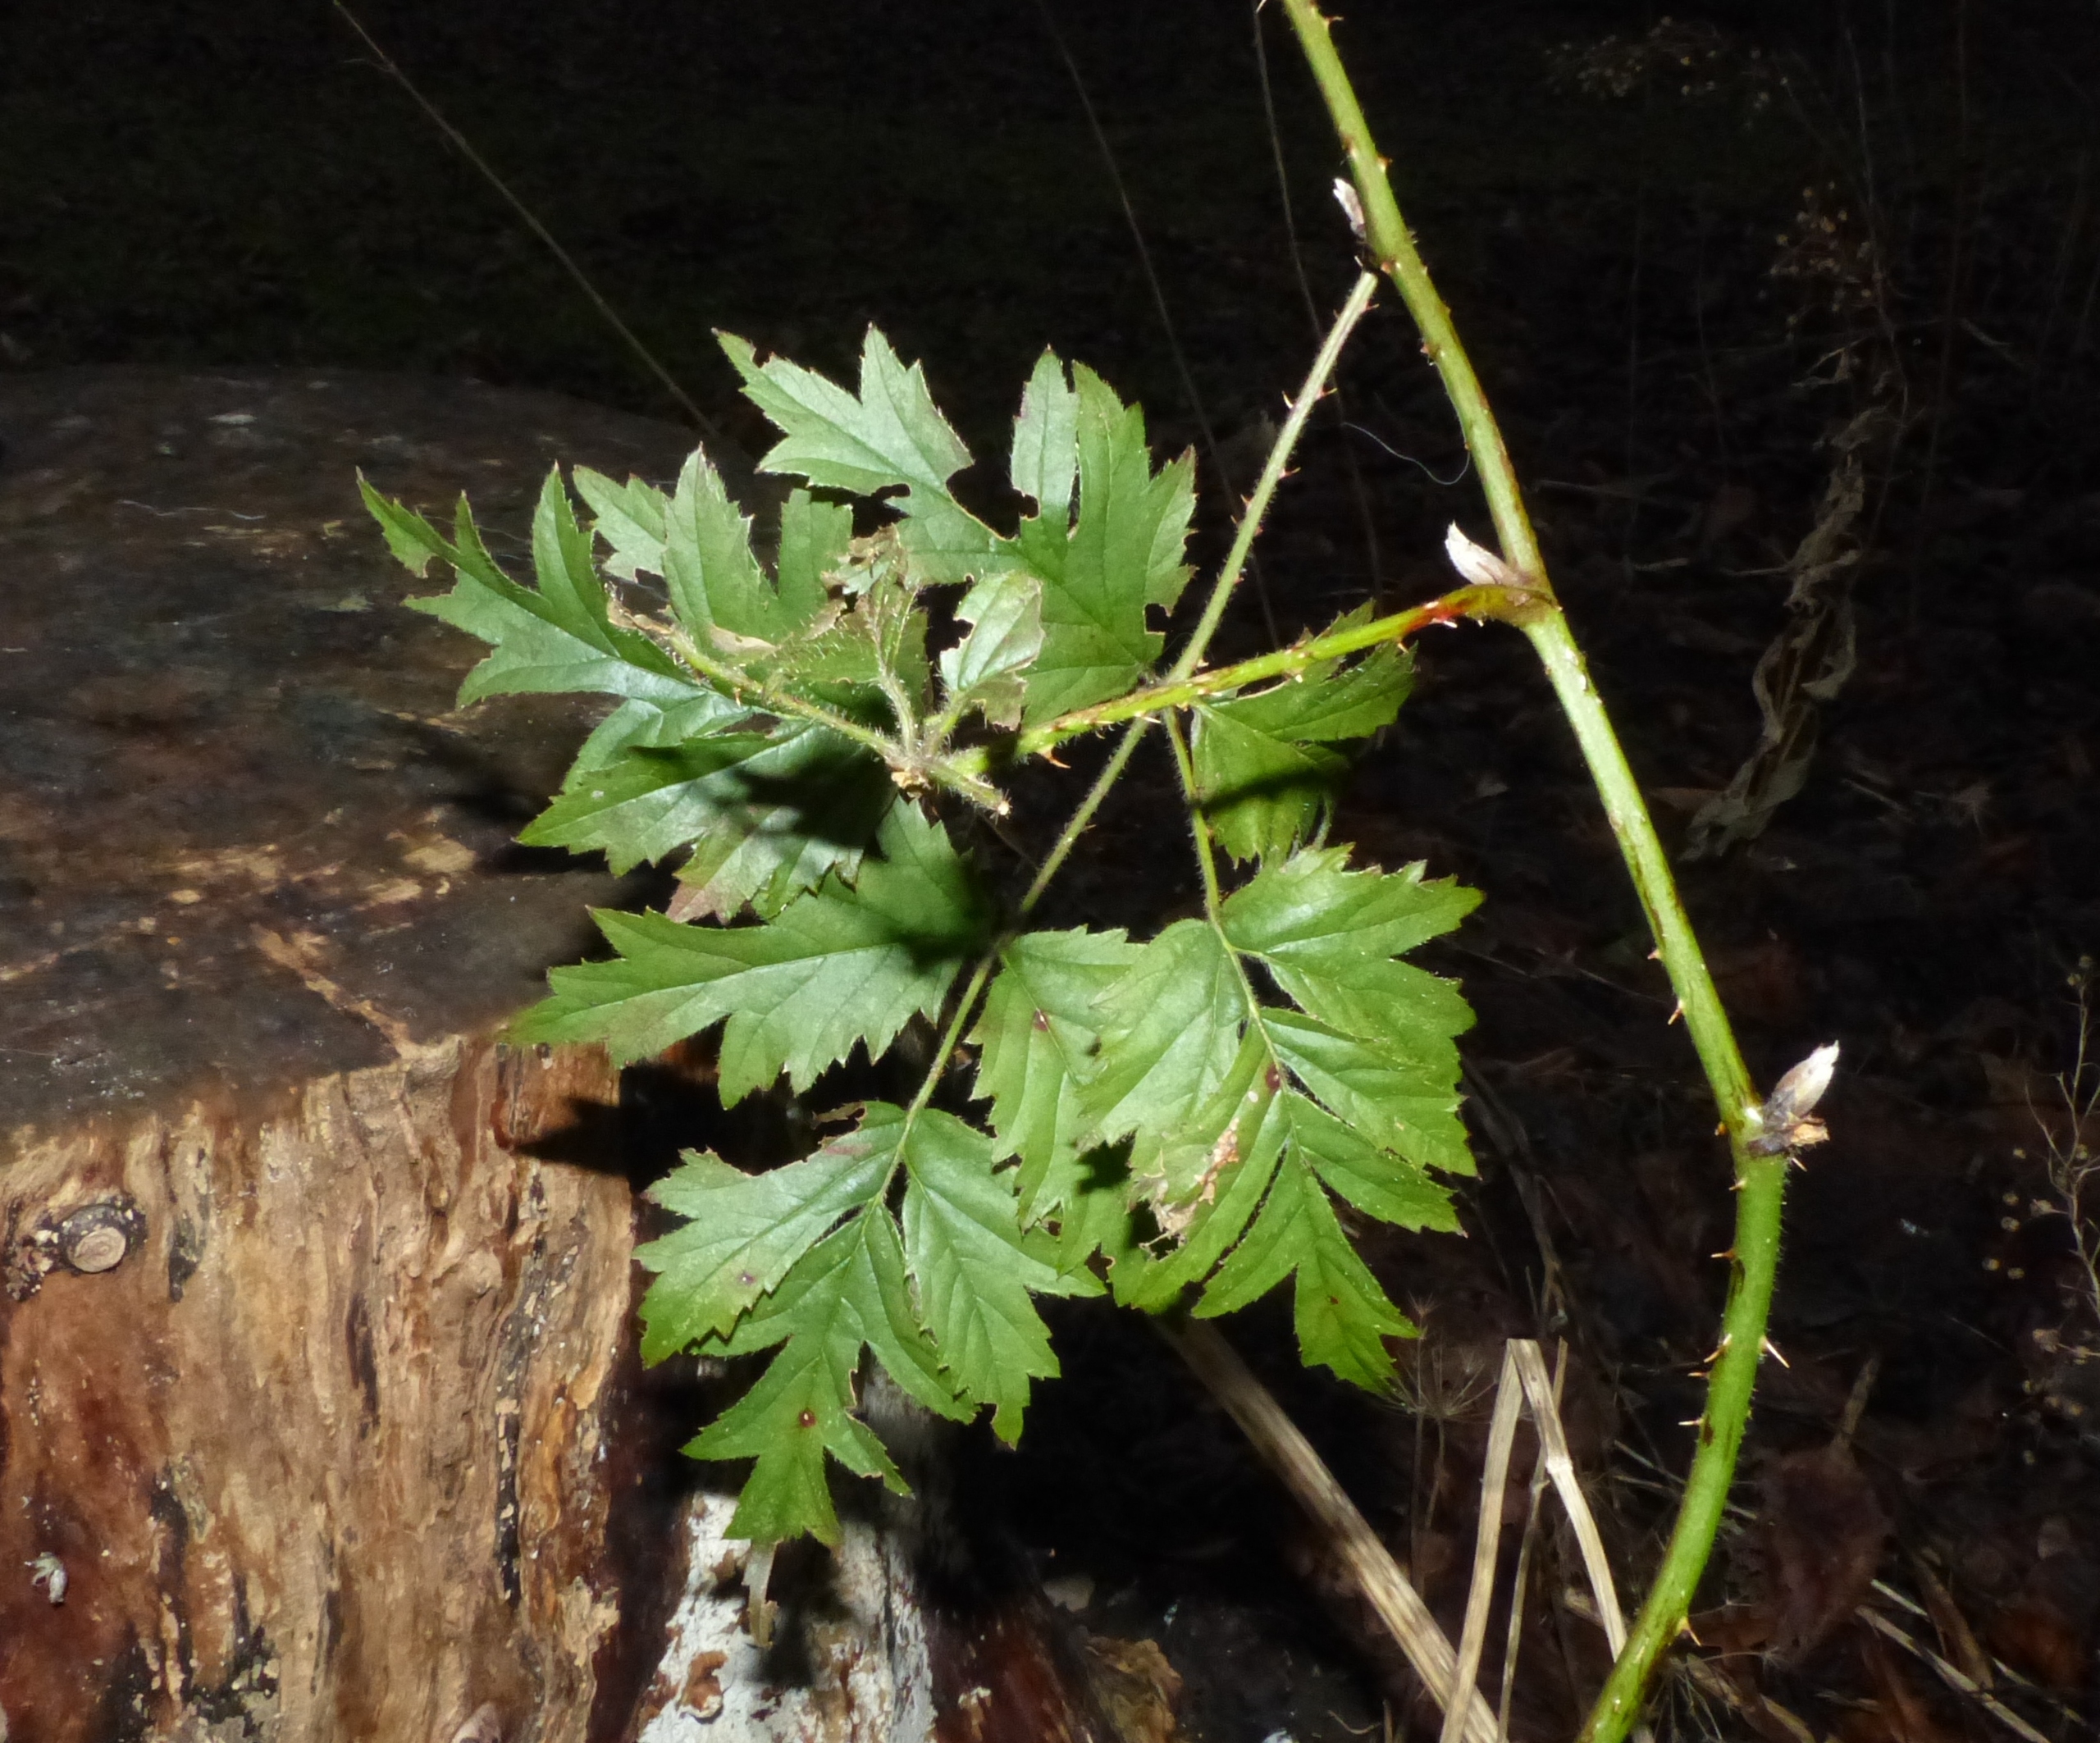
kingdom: Plantae
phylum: Tracheophyta
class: Magnoliopsida
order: Rosales
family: Rosaceae
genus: Rubus
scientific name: Rubus laciniatus
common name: Fliget brombær
